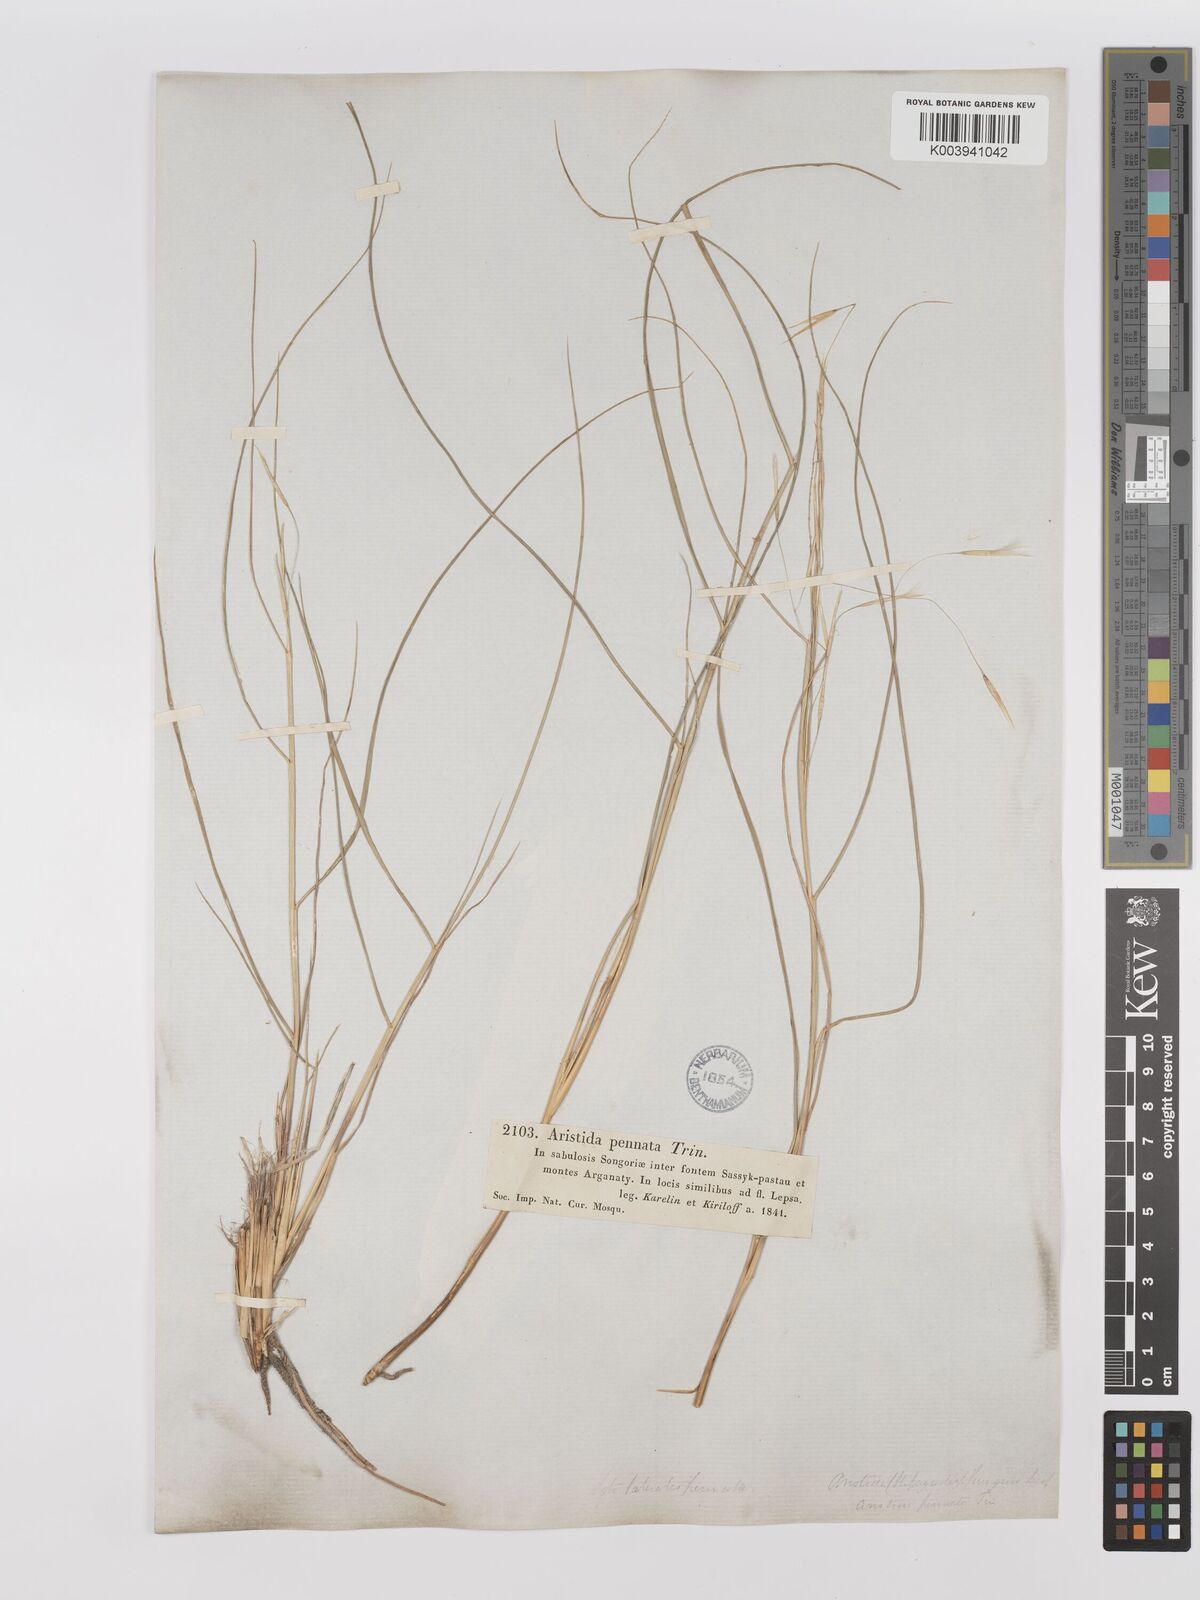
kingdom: Plantae
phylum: Tracheophyta
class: Liliopsida
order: Poales
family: Poaceae
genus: Stipagrostis
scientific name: Stipagrostis pungens
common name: Three-awn grass
